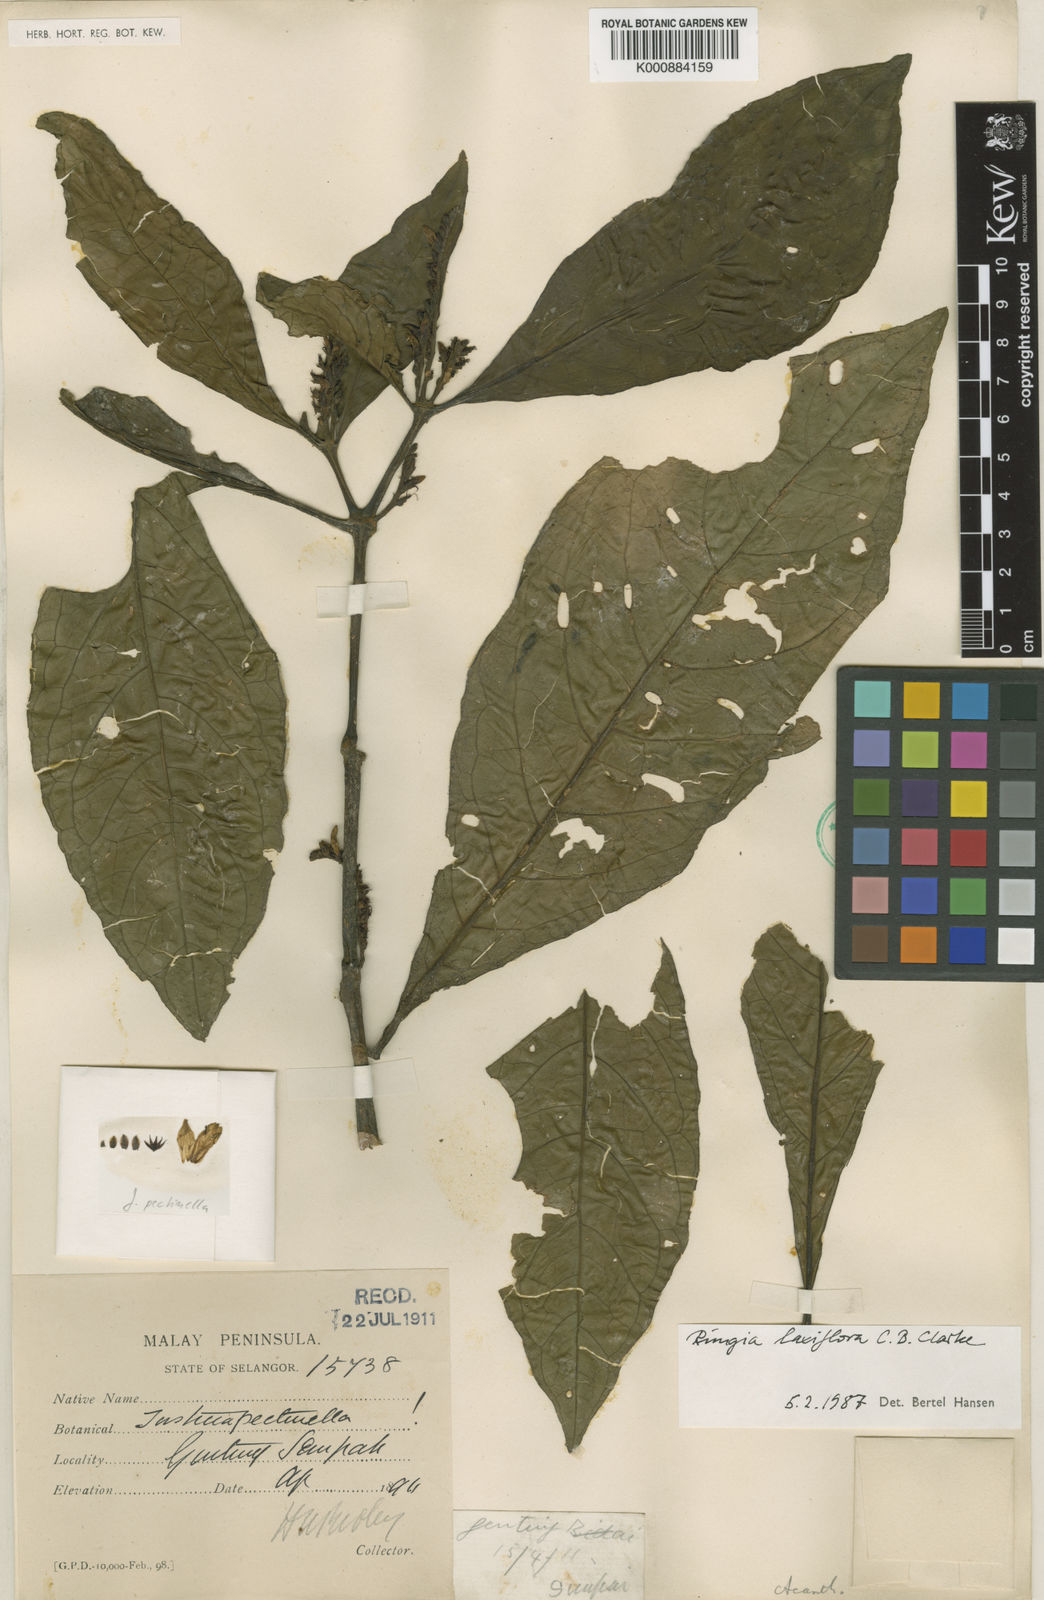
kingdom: Plantae
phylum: Tracheophyta
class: Magnoliopsida
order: Lamiales
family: Acanthaceae
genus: Haplanthus
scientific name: Haplanthus laxiflorus
